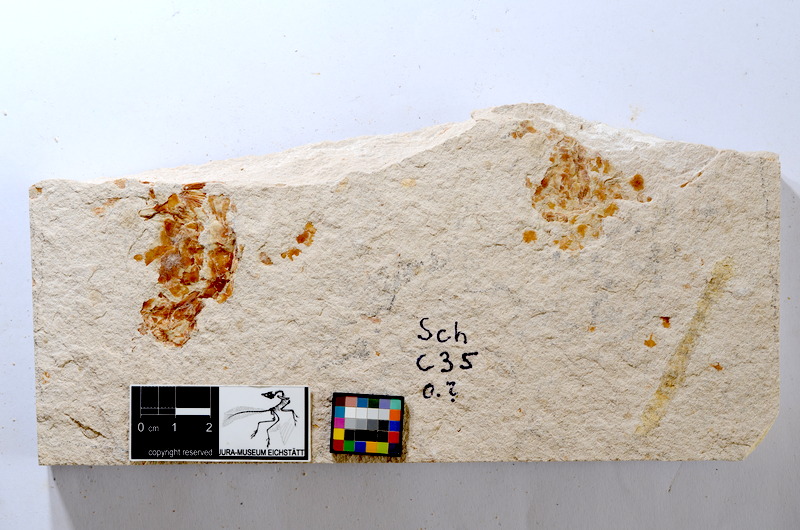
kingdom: Animalia
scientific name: Animalia
